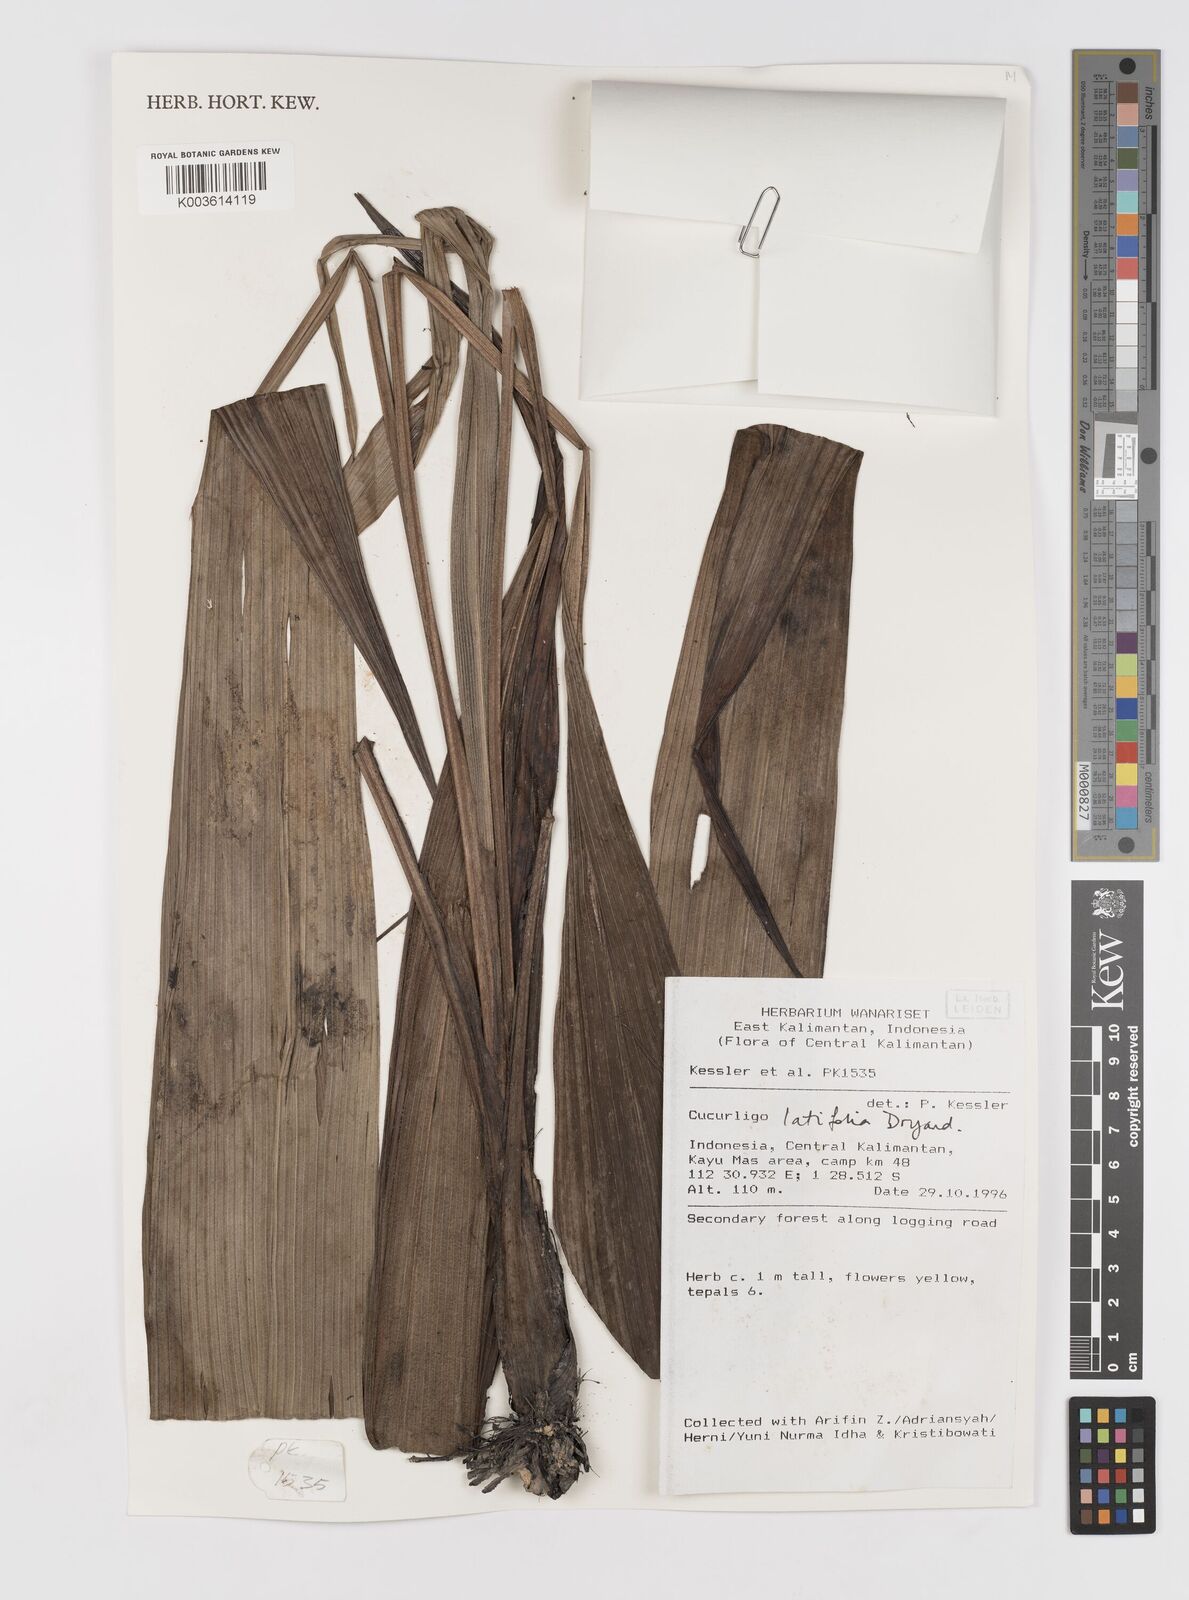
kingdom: Plantae
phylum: Tracheophyta
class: Liliopsida
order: Asparagales
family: Hypoxidaceae
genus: Curculigo
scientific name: Curculigo latifolia
